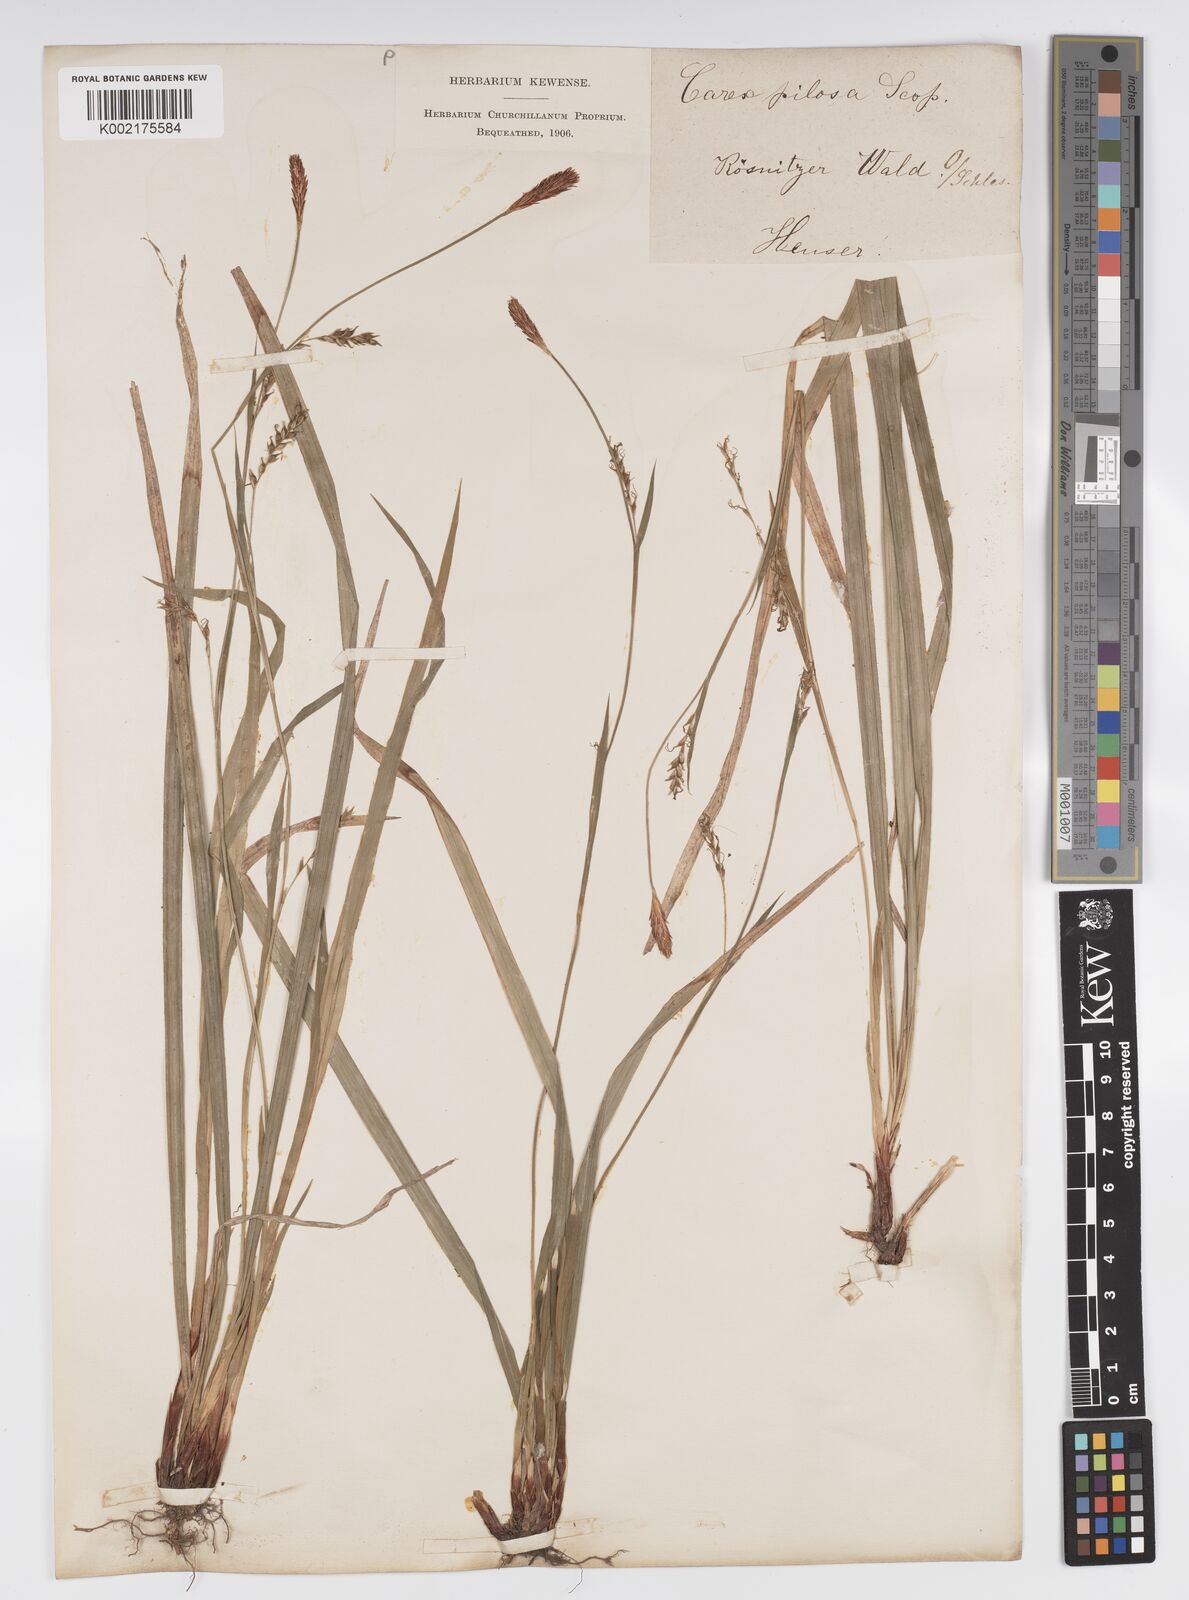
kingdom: Plantae
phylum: Tracheophyta
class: Liliopsida
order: Poales
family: Cyperaceae
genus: Carex
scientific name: Carex pilosa
